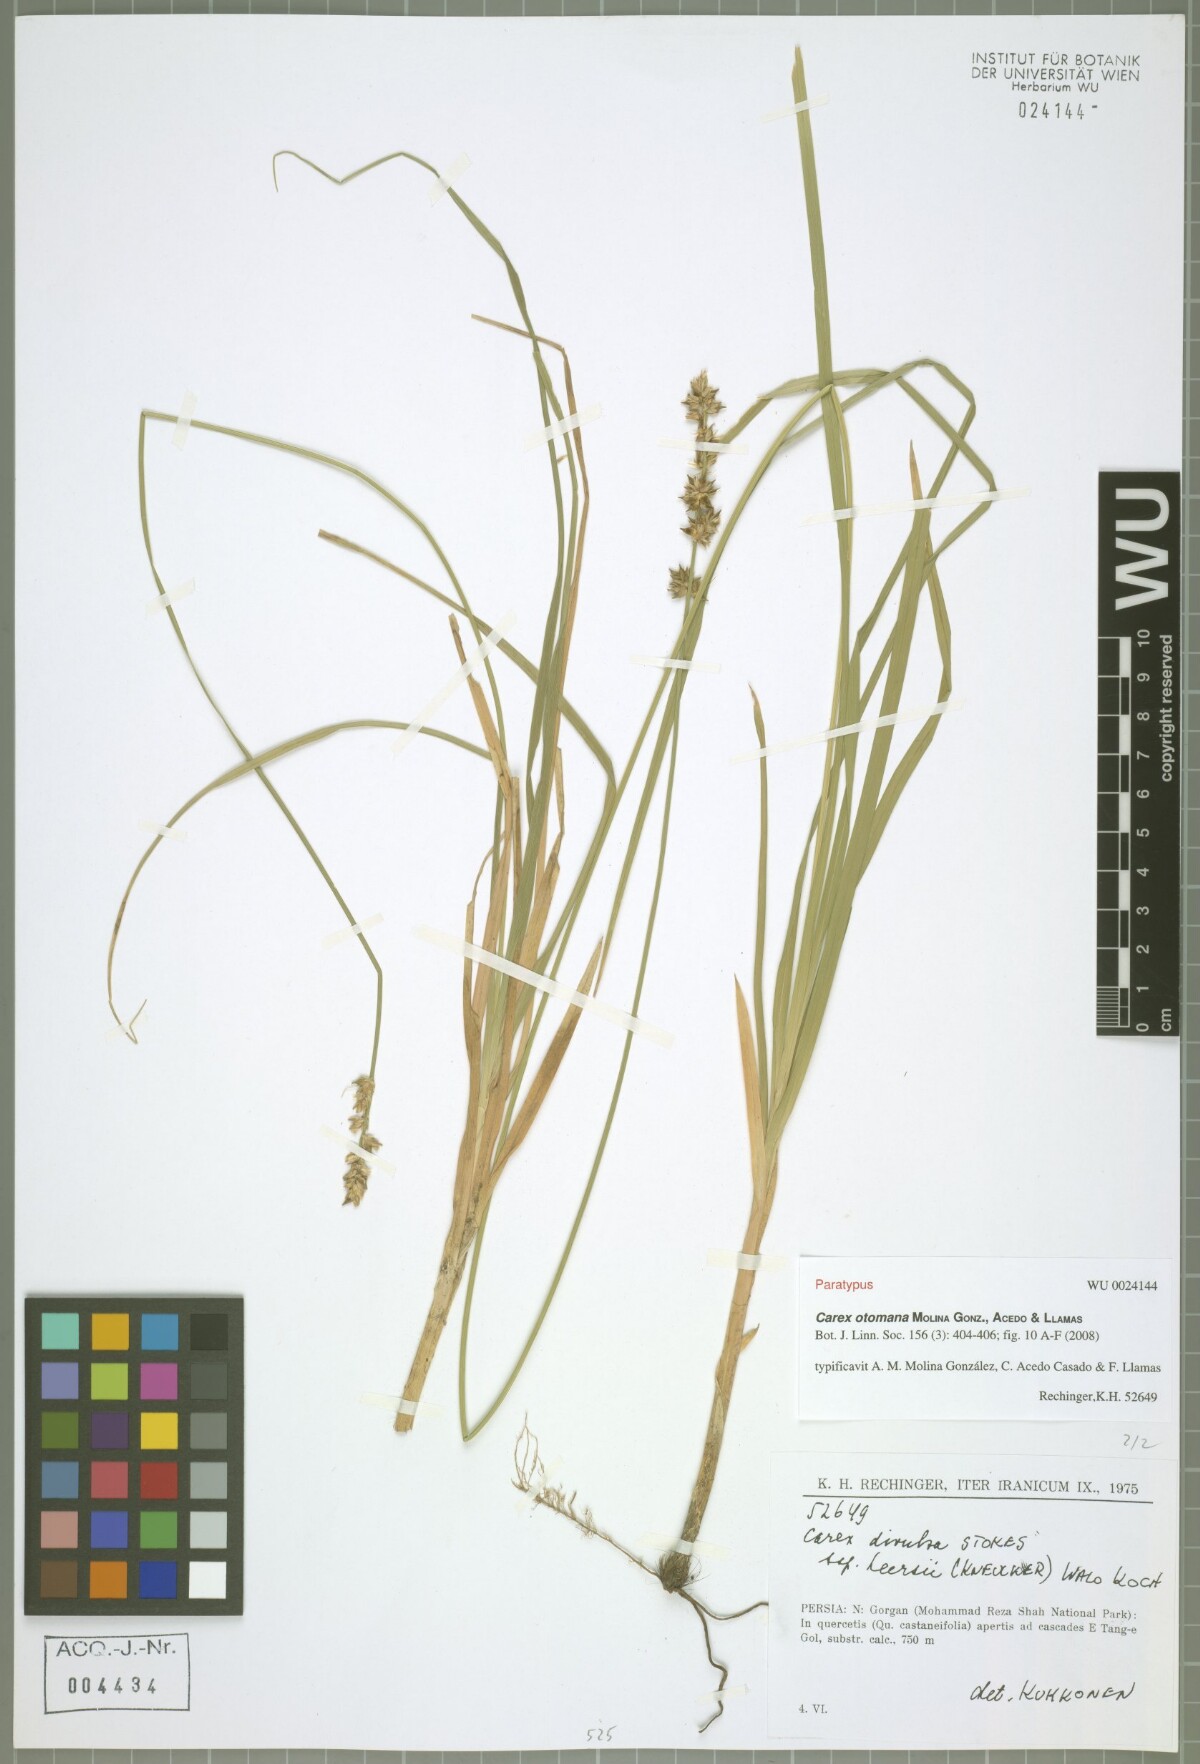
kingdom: Plantae
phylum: Tracheophyta
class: Liliopsida
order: Poales
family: Cyperaceae
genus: Carex
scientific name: Carex otomana
